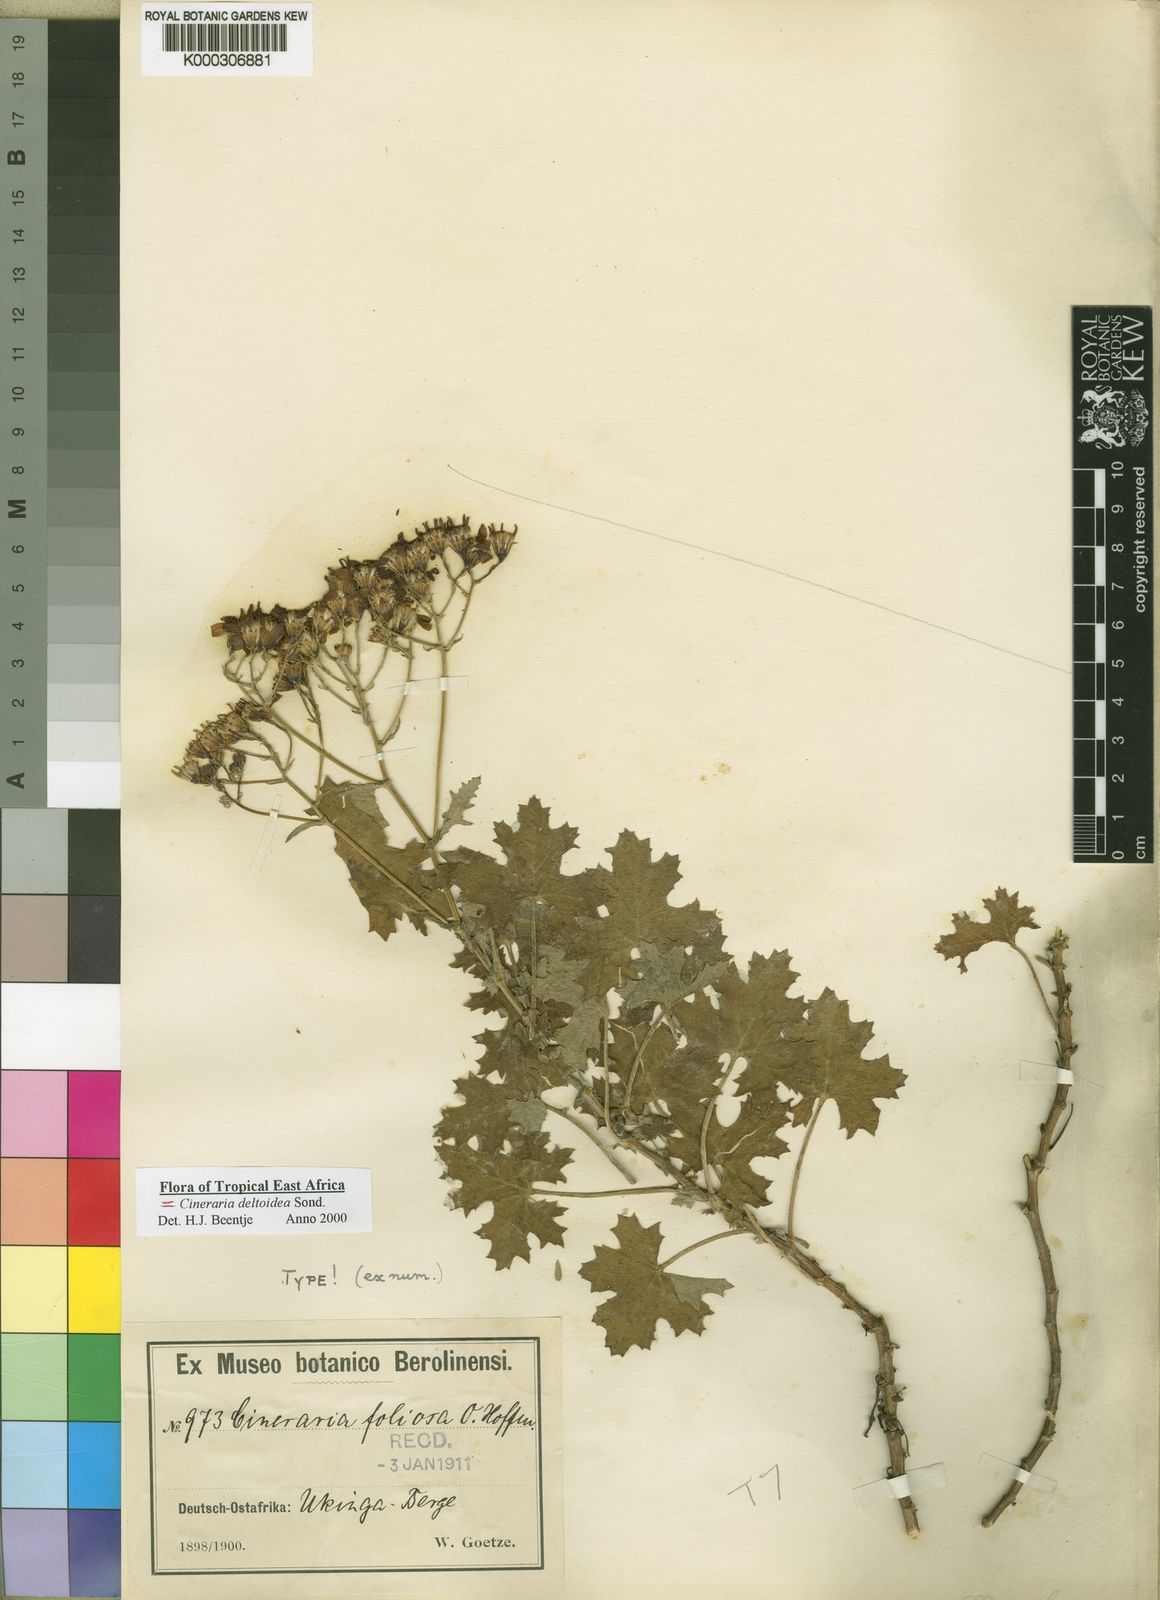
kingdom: Plantae
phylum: Tracheophyta
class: Magnoliopsida
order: Asterales
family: Asteraceae
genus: Cineraria
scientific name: Cineraria deltoidea
